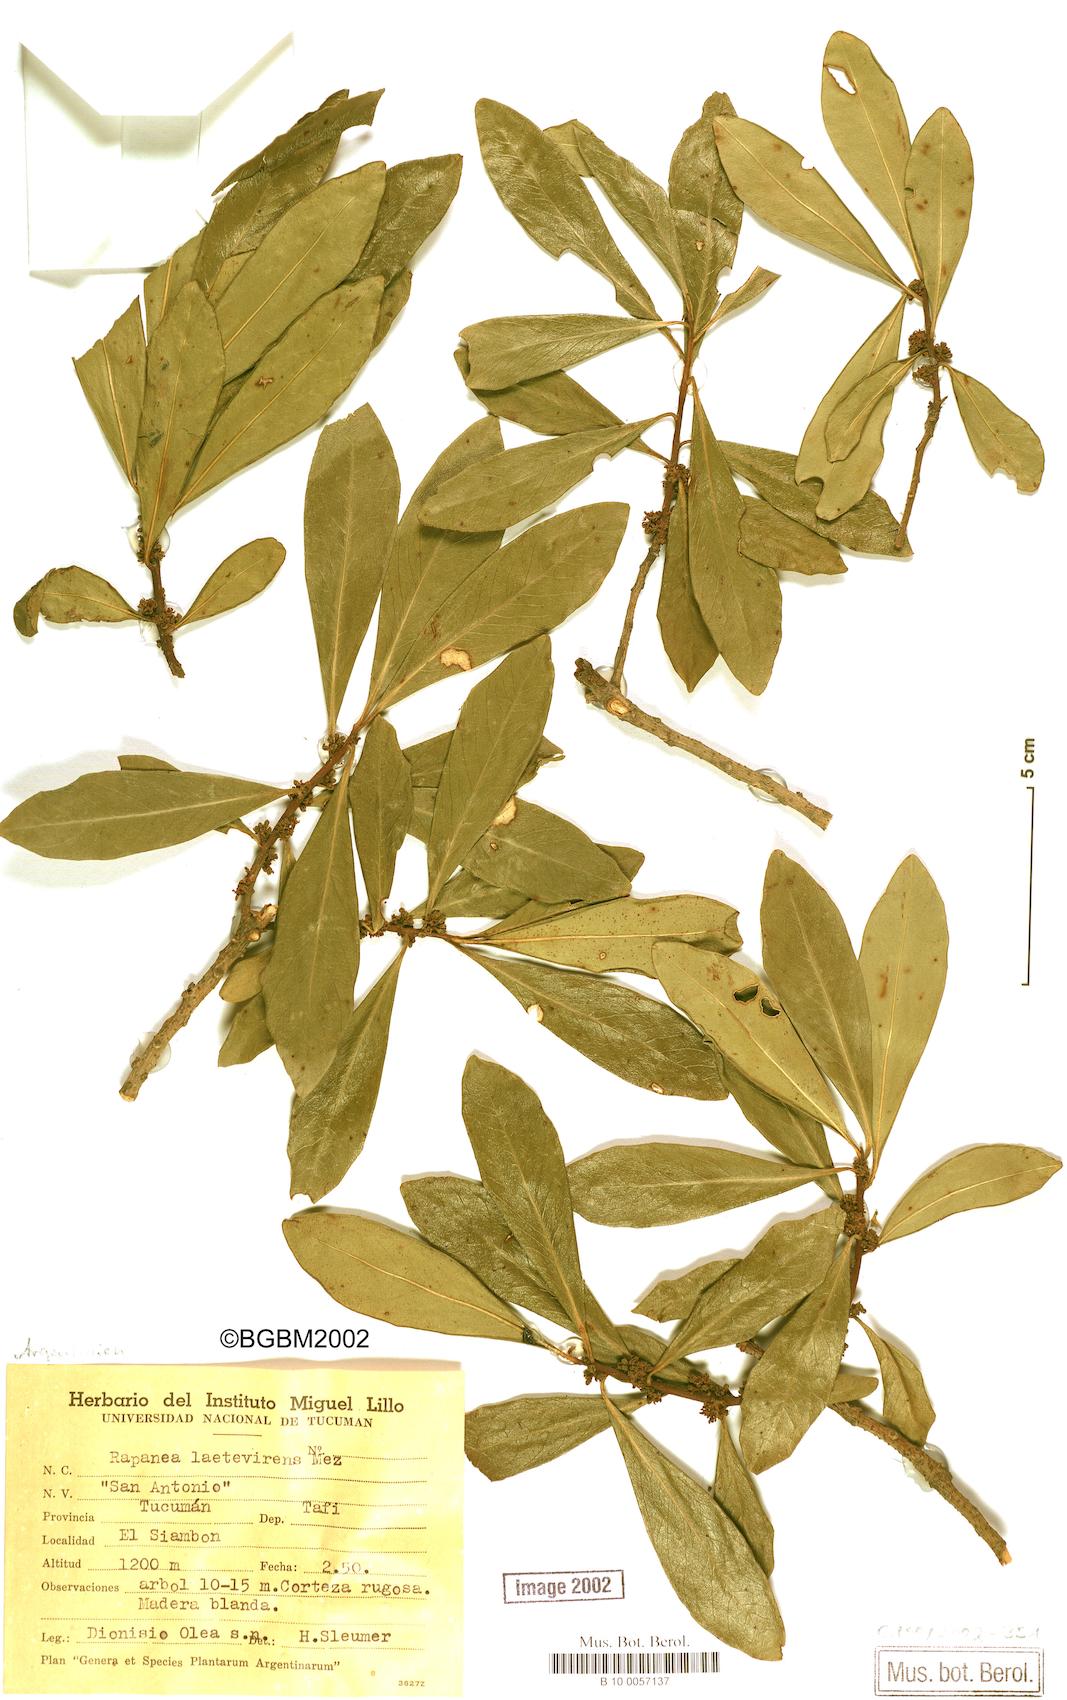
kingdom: Plantae
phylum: Tracheophyta
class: Magnoliopsida
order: Ericales
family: Primulaceae
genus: Myrsine
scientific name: Myrsine laetevirens
